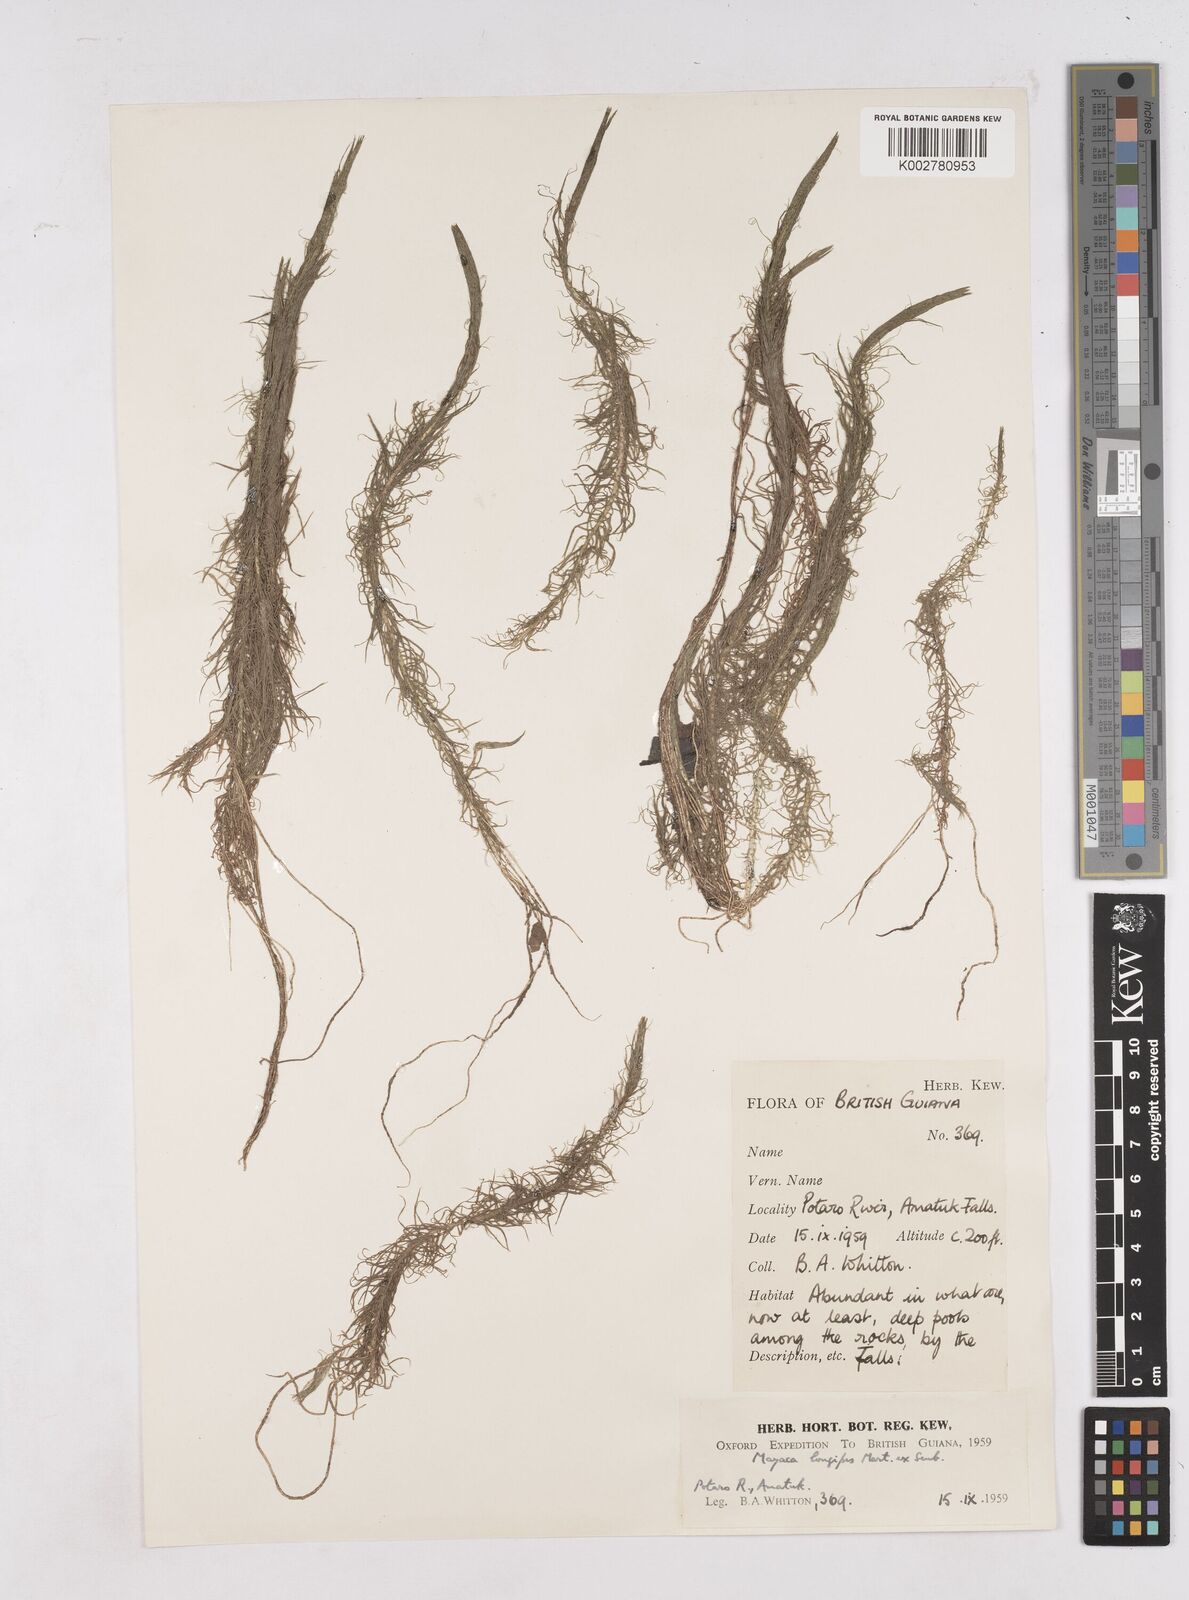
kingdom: Plantae
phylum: Tracheophyta
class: Liliopsida
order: Poales
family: Mayacaceae
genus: Mayaca
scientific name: Mayaca fluviatilis
